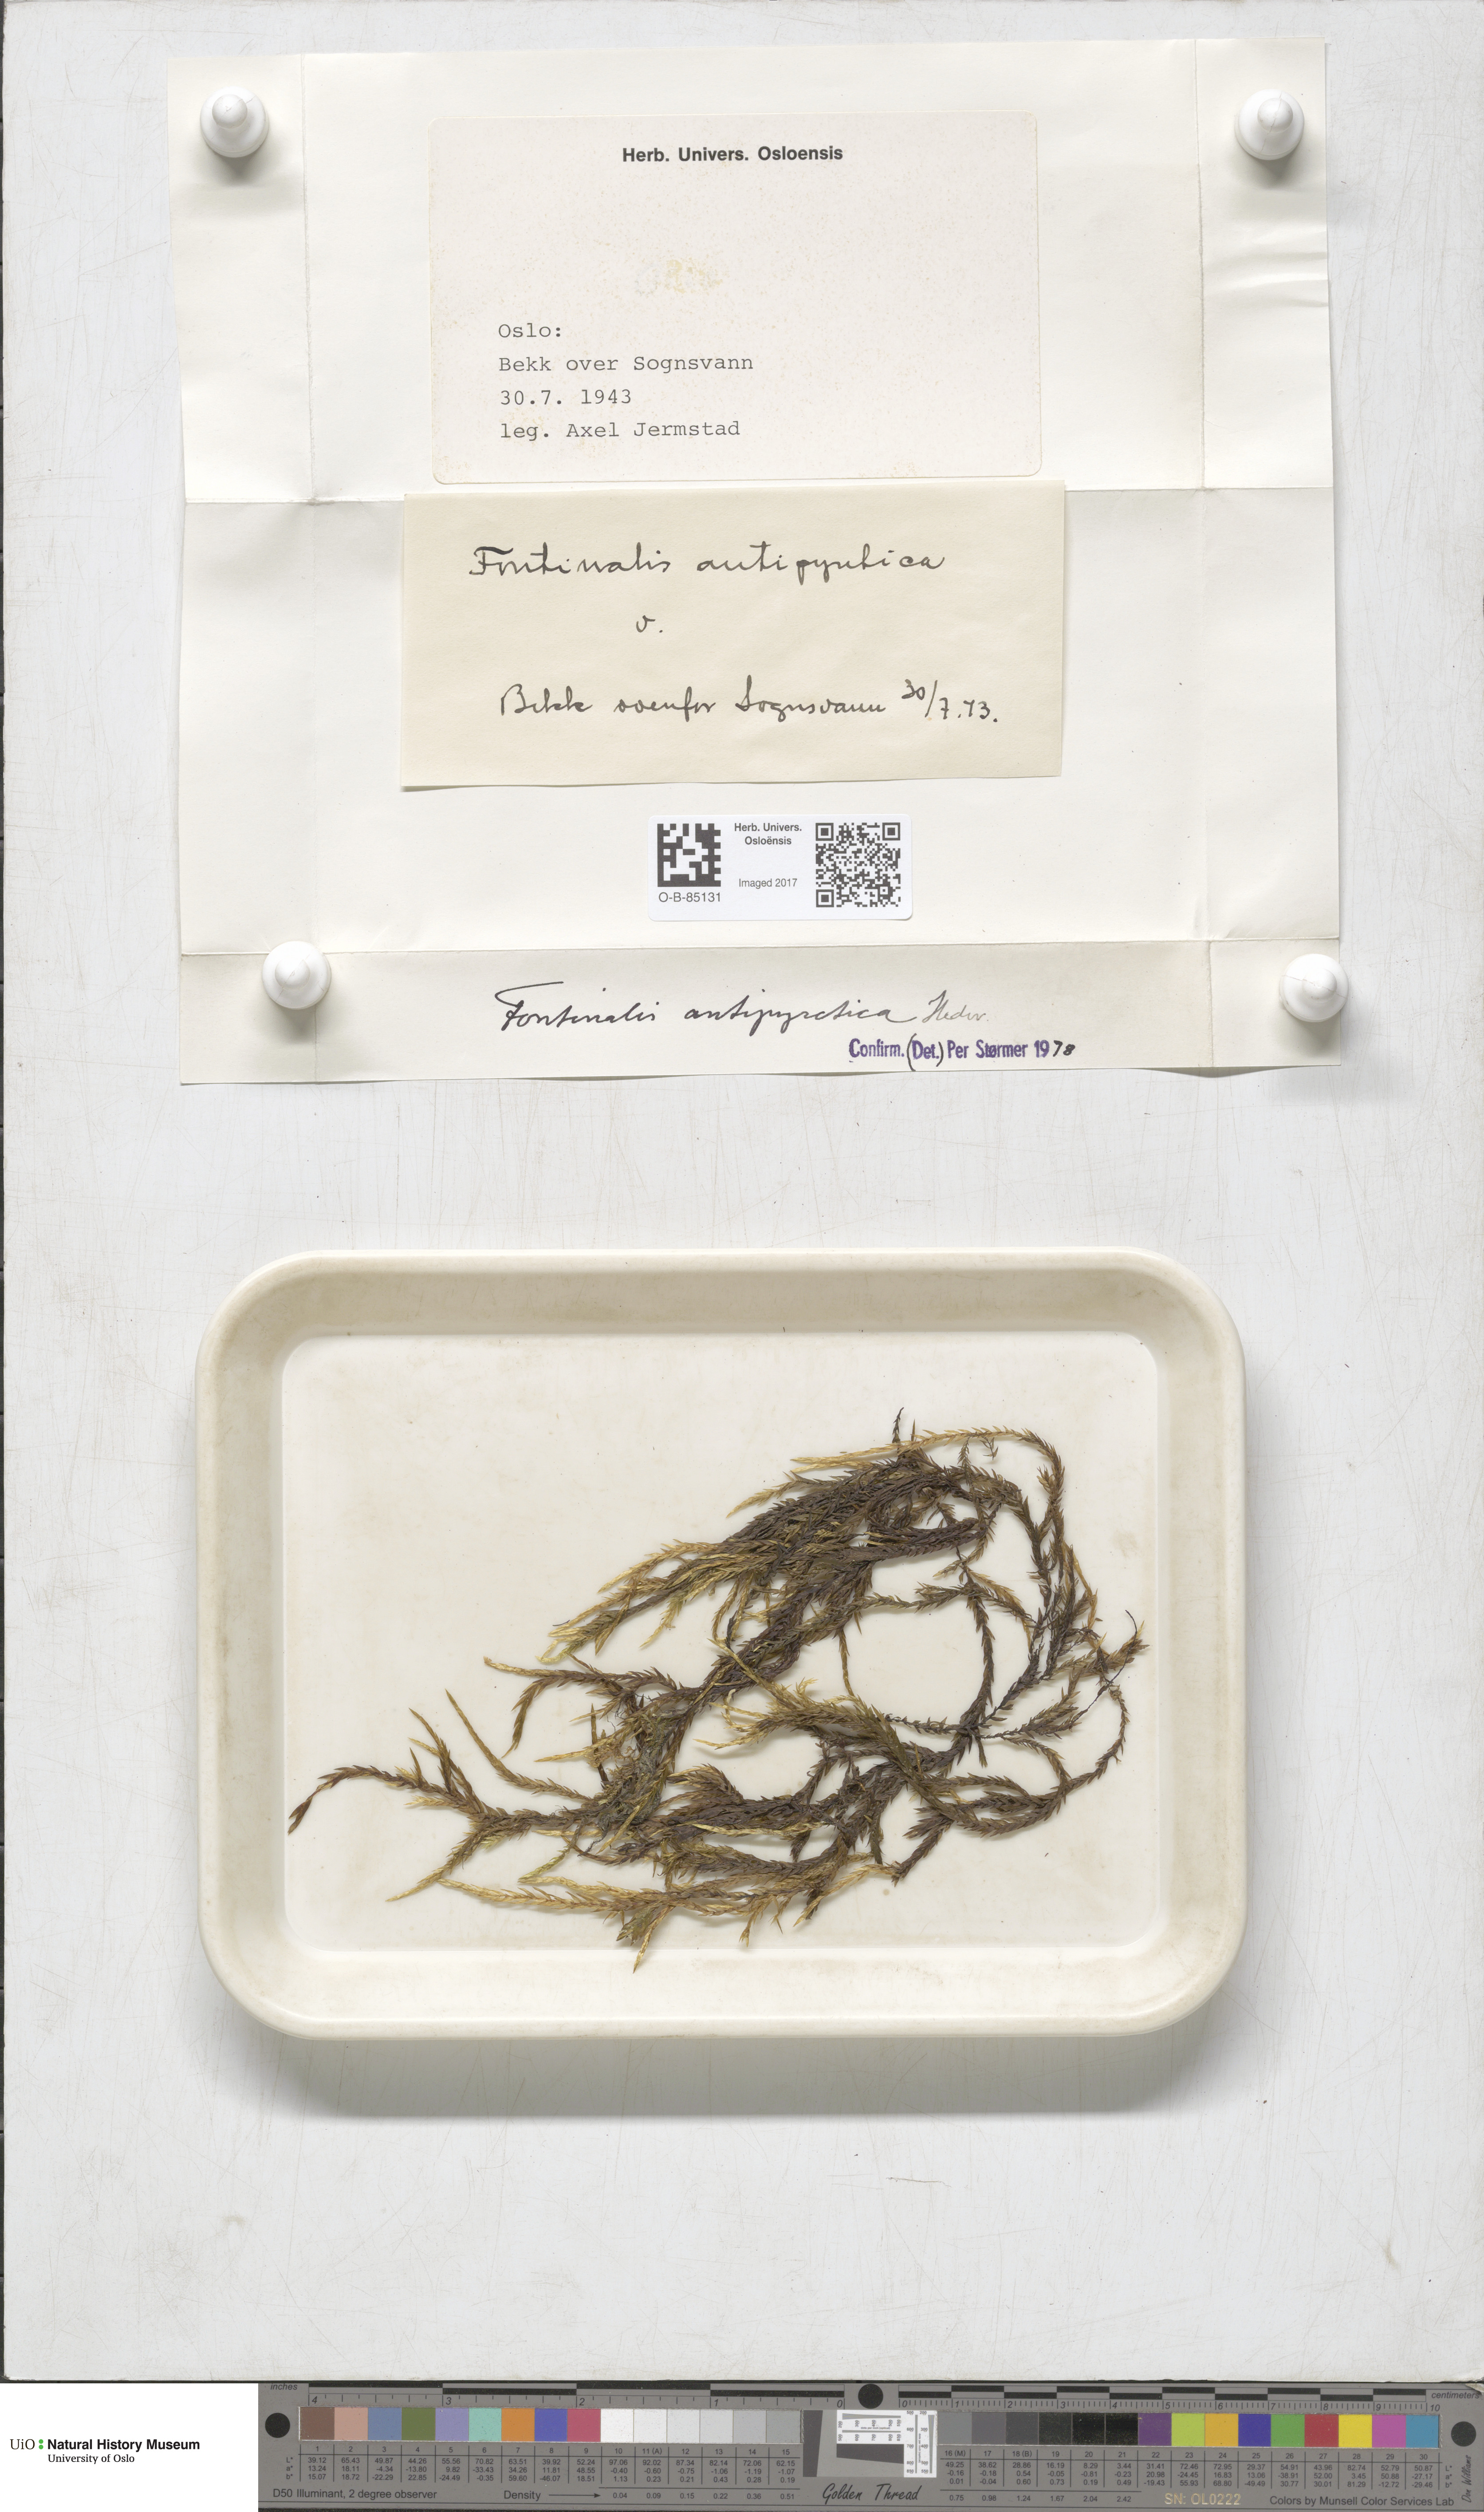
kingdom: Plantae
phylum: Bryophyta
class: Bryopsida
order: Hypnales
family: Fontinalaceae
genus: Fontinalis
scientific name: Fontinalis antipyretica
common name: Greater water-moss
